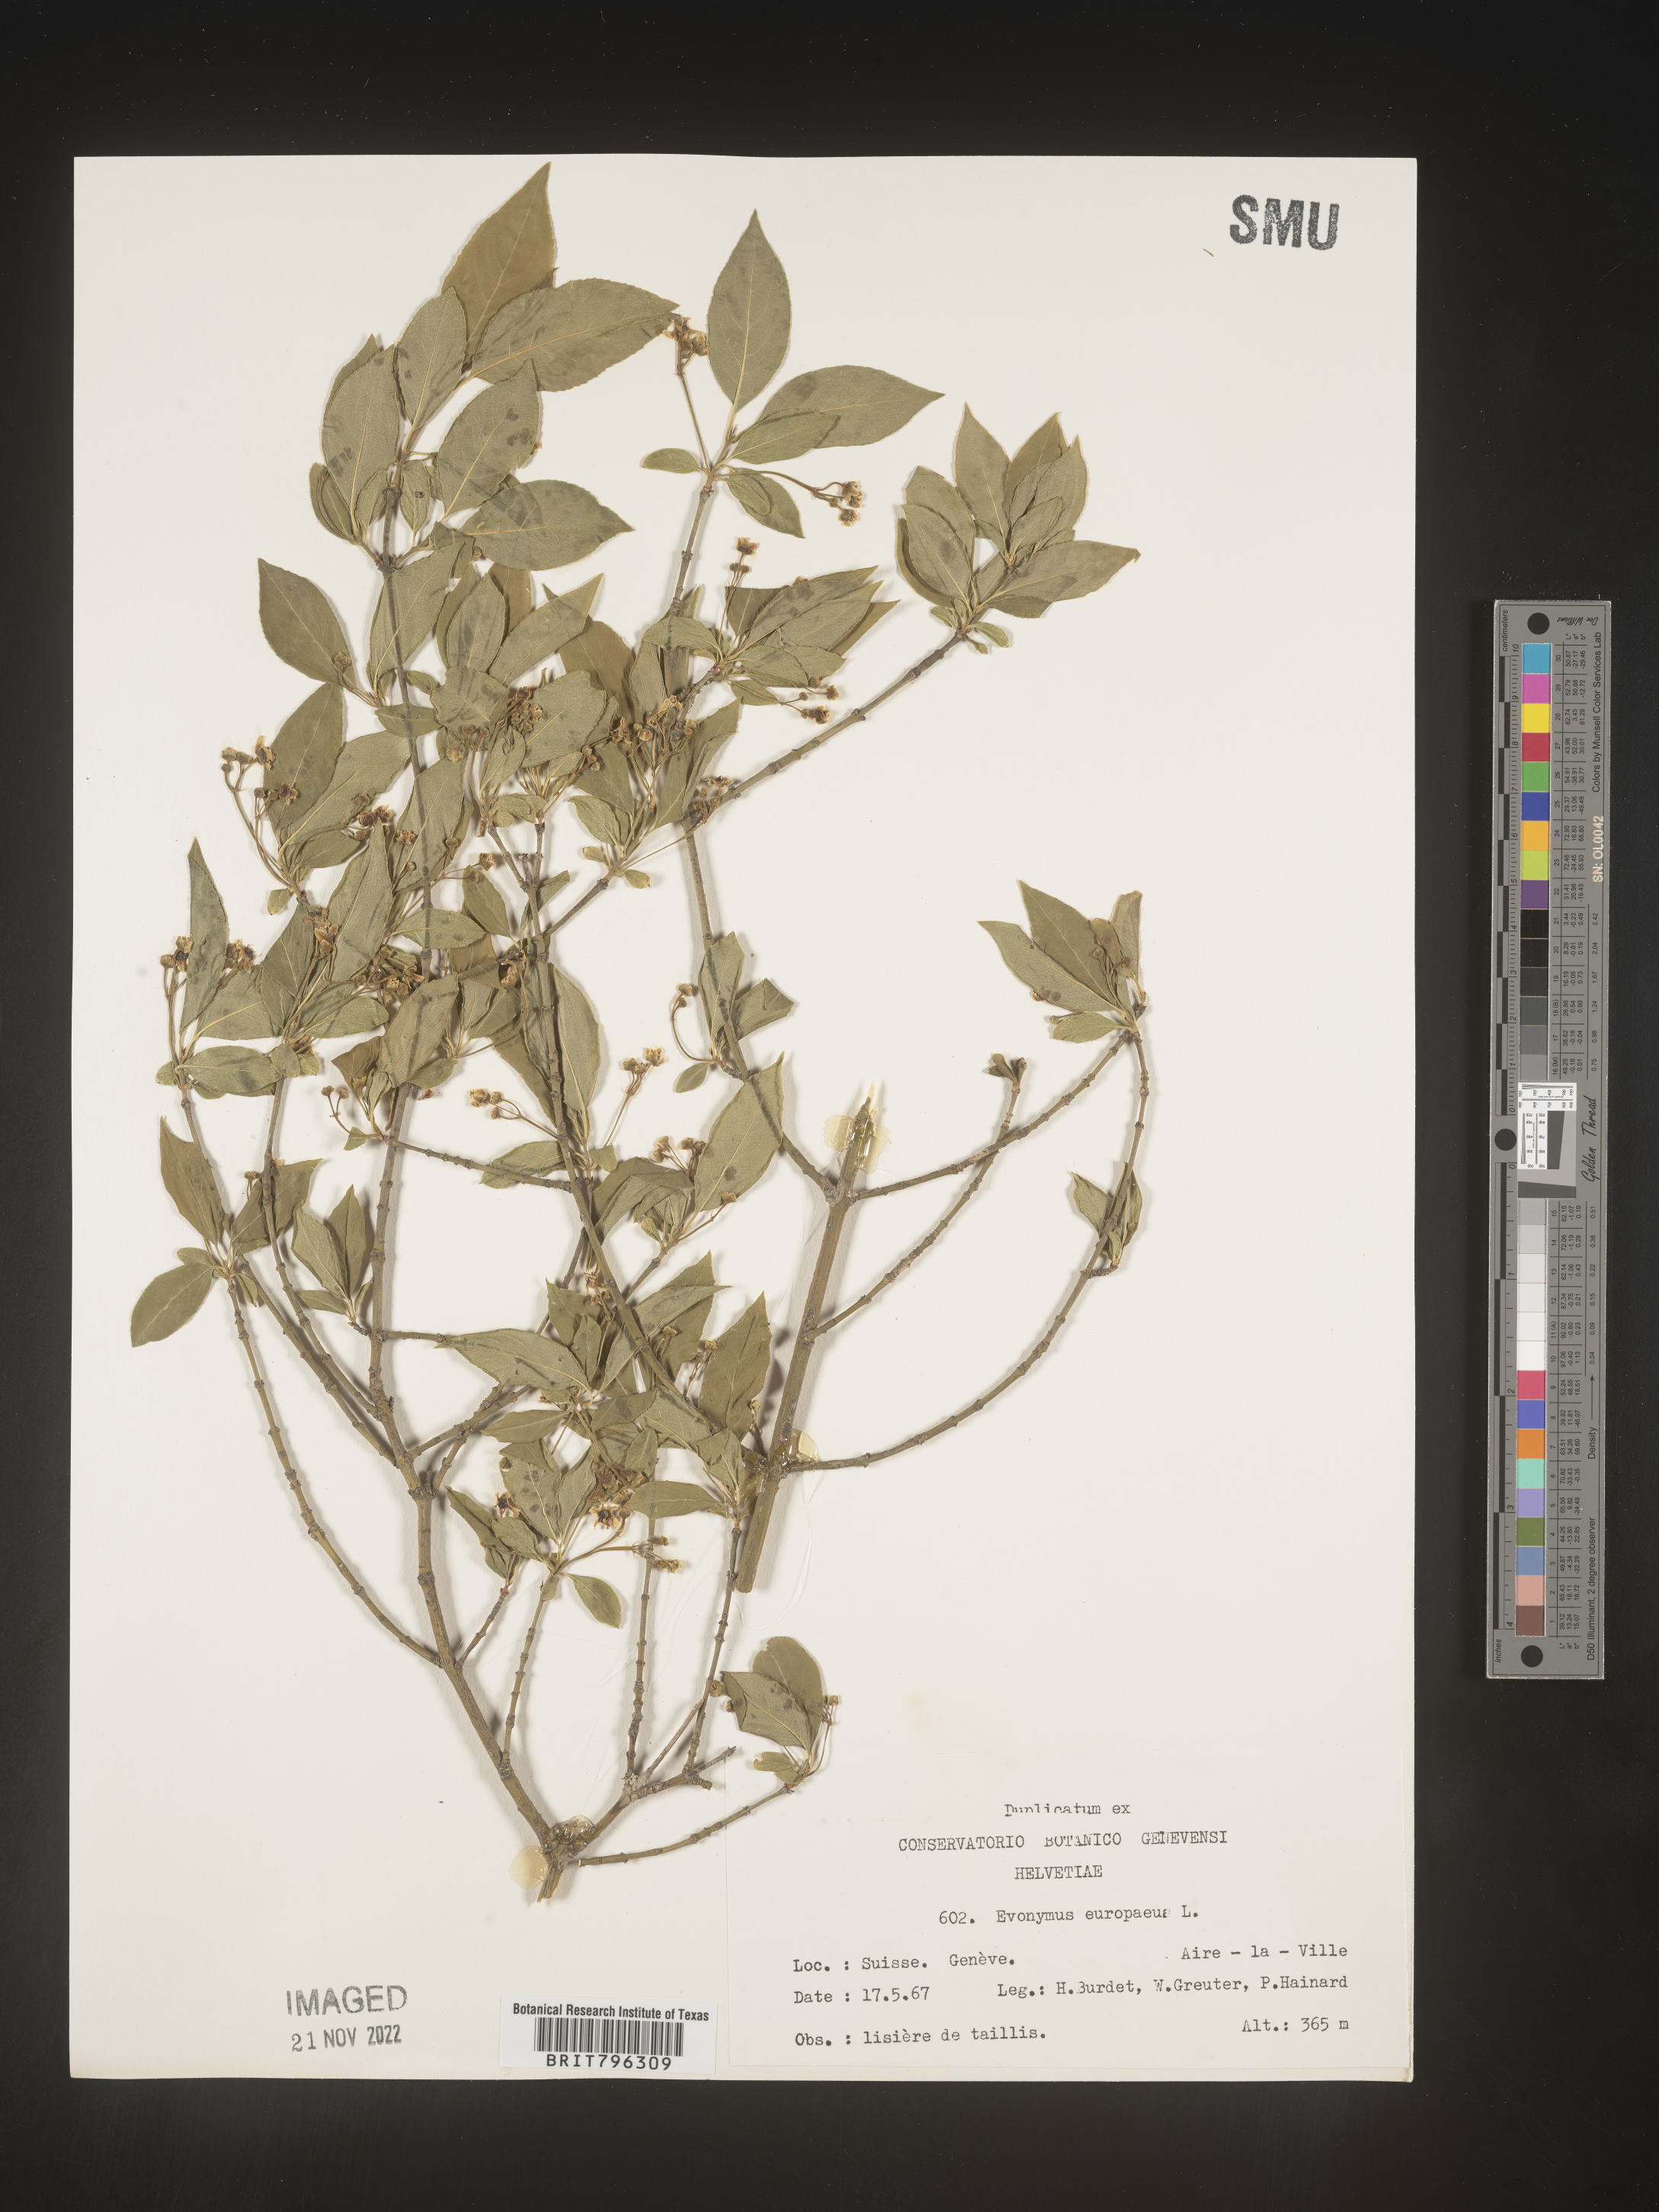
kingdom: Plantae
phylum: Tracheophyta
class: Magnoliopsida
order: Celastrales
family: Celastraceae
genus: Euonymus
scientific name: Euonymus
